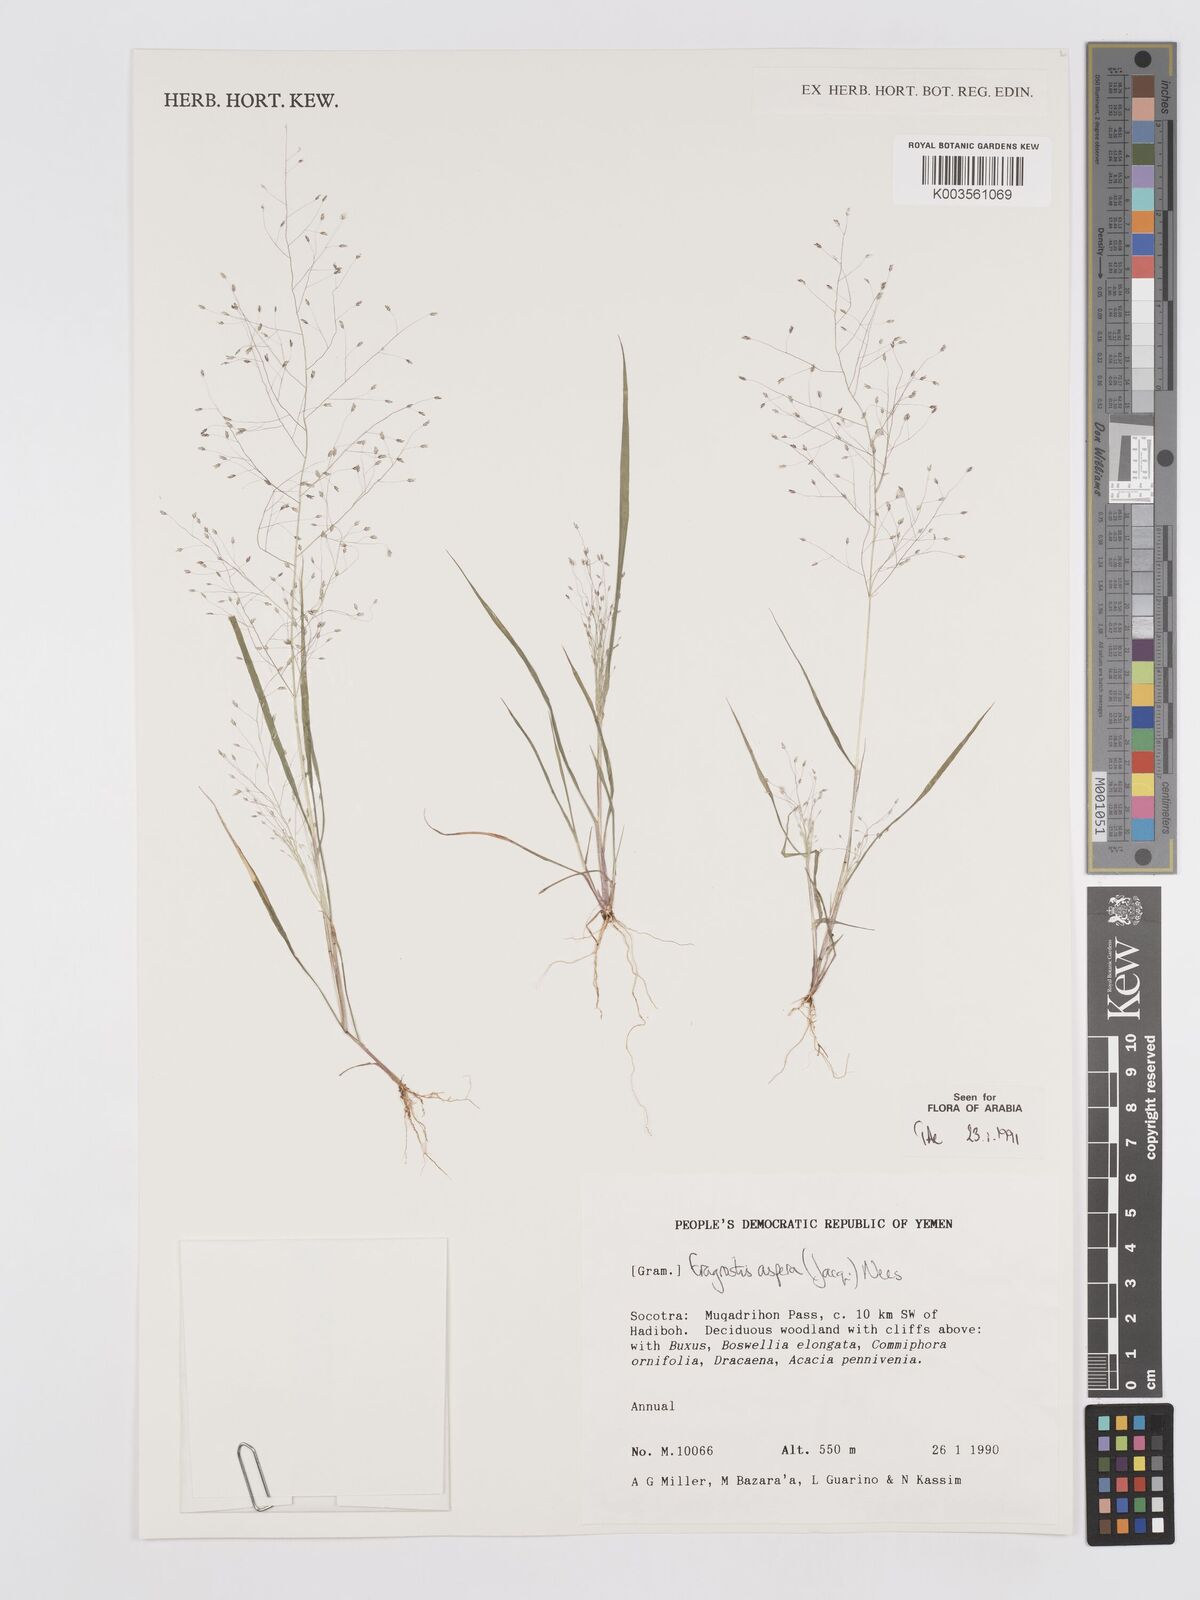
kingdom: Plantae
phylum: Tracheophyta
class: Liliopsida
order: Poales
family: Poaceae
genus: Eragrostis
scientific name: Eragrostis aspera
